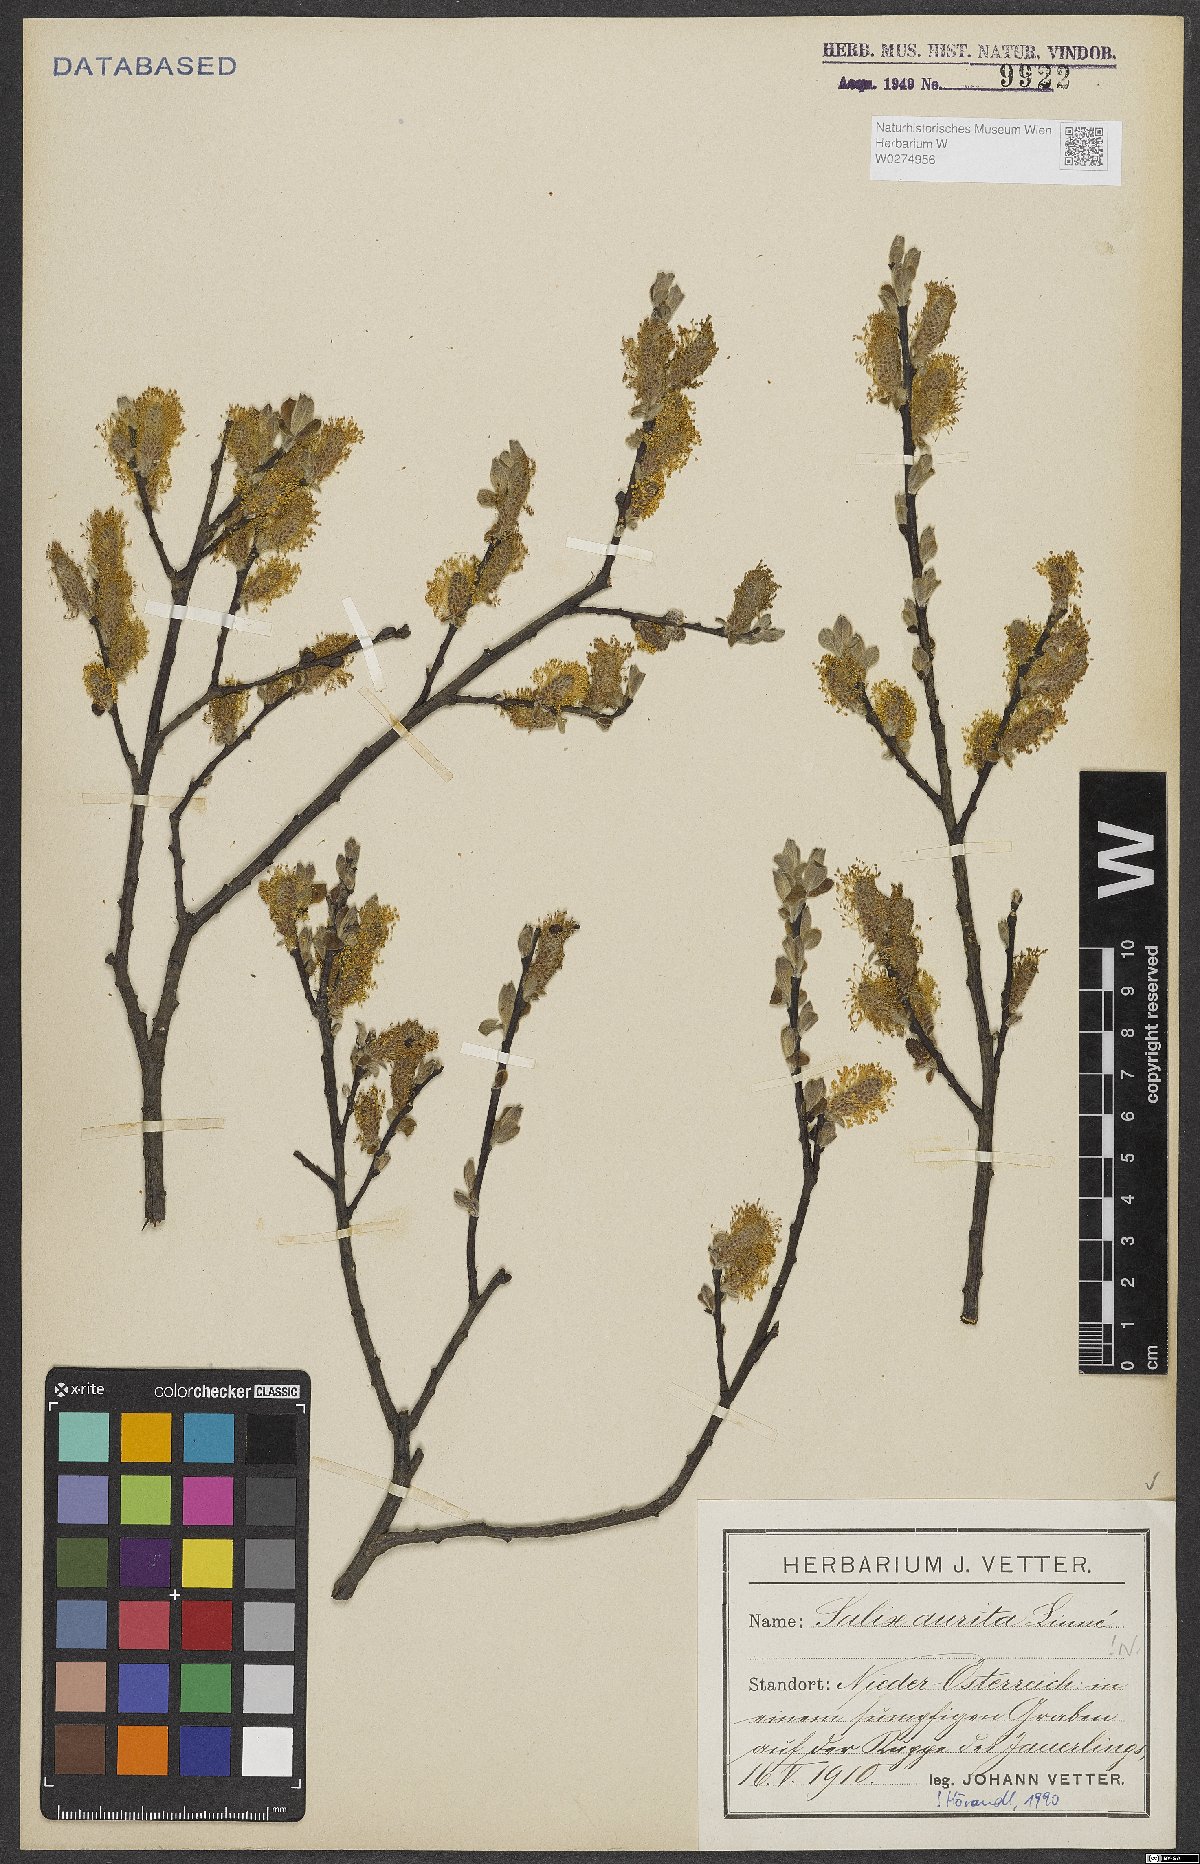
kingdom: Plantae
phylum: Tracheophyta
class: Magnoliopsida
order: Malpighiales
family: Salicaceae
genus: Salix
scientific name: Salix aurita
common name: Eared willow
